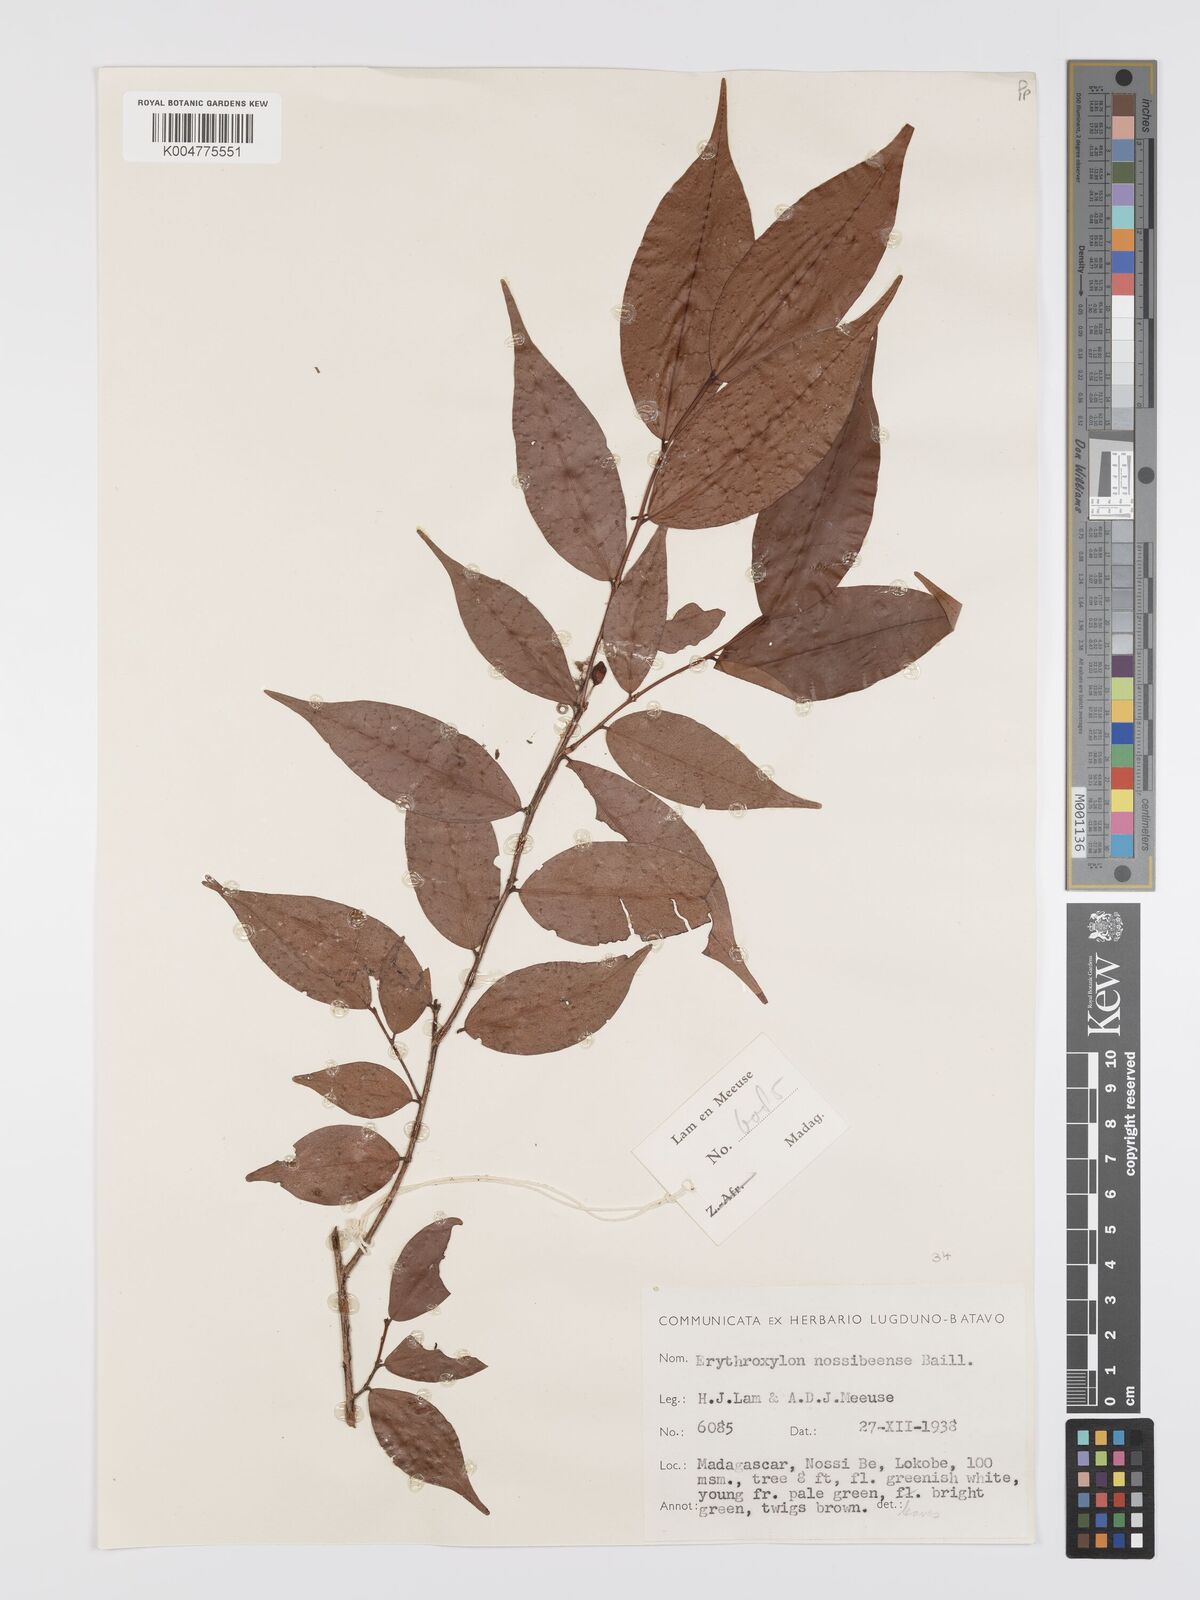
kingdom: Plantae
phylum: Tracheophyta
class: Magnoliopsida
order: Malpighiales
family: Erythroxylaceae
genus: Erythroxylum
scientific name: Erythroxylum nossibeense
